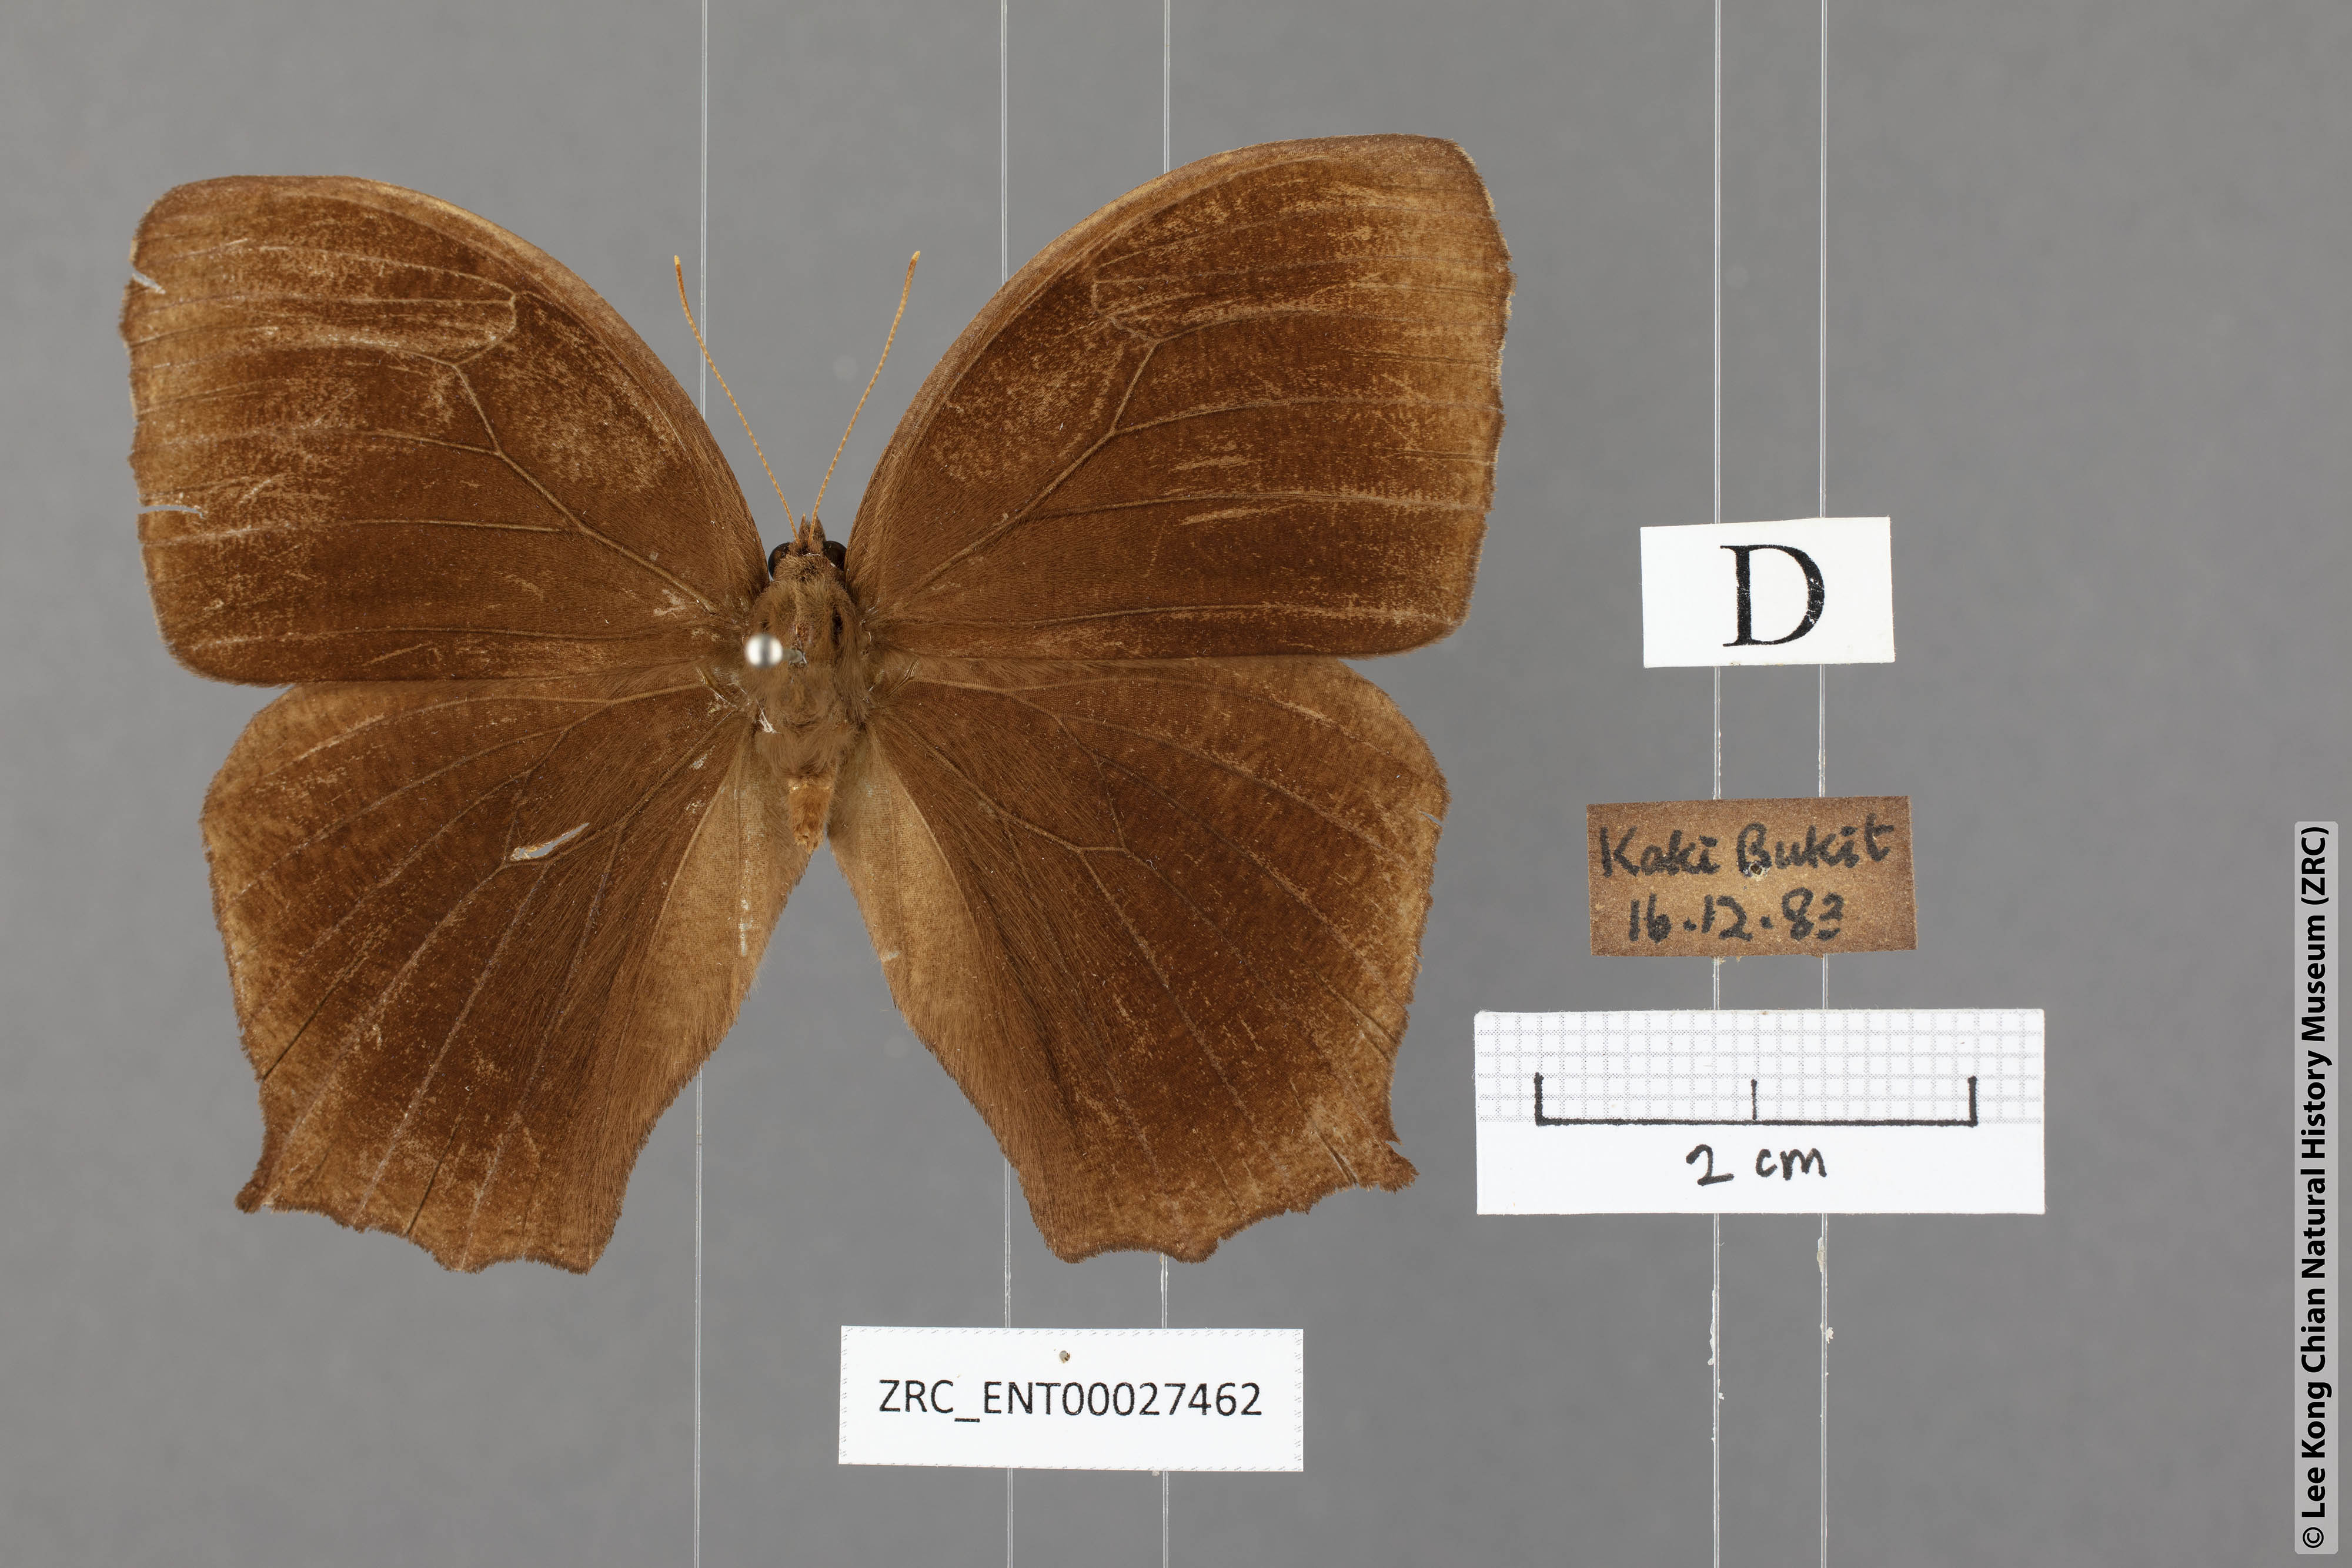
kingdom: Animalia
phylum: Arthropoda
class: Insecta
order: Lepidoptera
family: Nymphalidae
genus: Melanitis
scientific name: Melanitis phedima
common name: Dark evening brown
